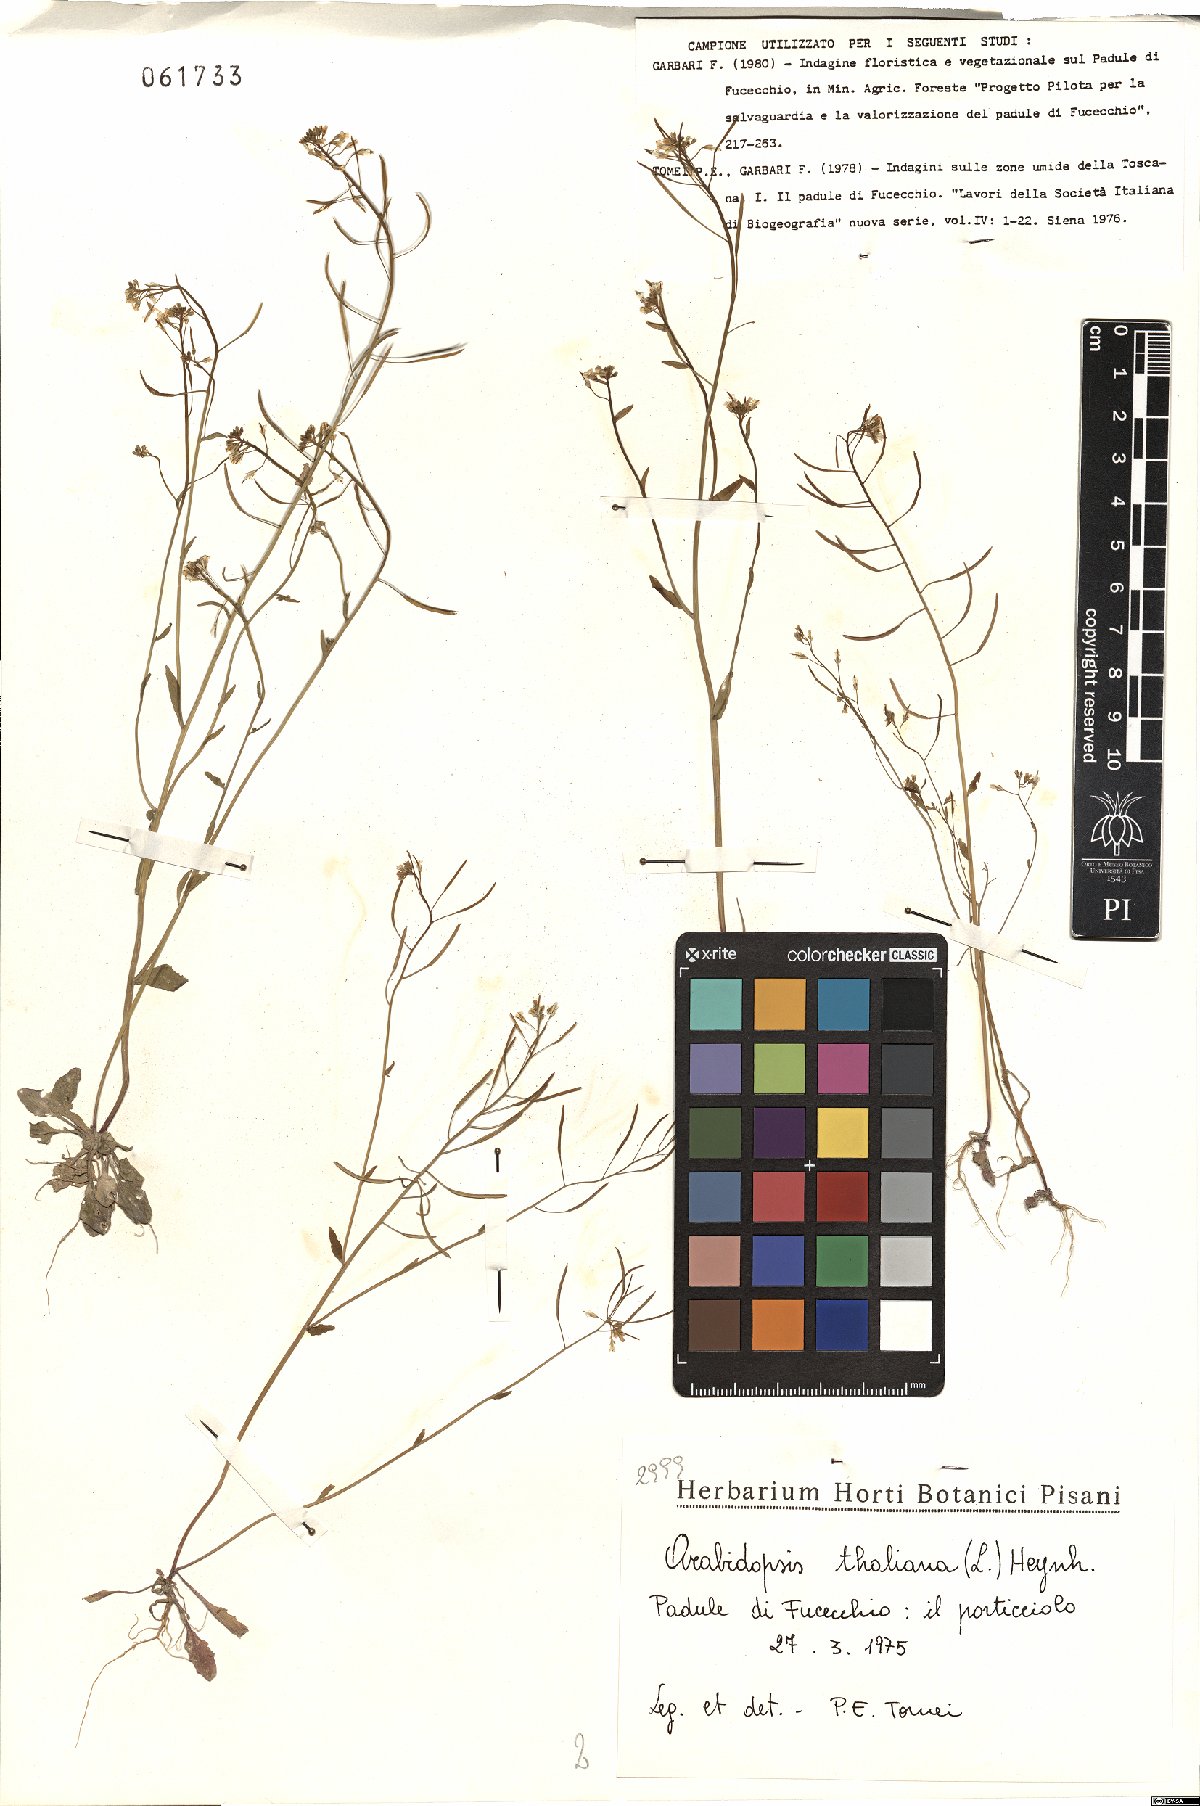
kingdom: Plantae
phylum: Tracheophyta
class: Magnoliopsida
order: Brassicales
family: Brassicaceae
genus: Arabidopsis
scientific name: Arabidopsis thaliana
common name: Thale cress
